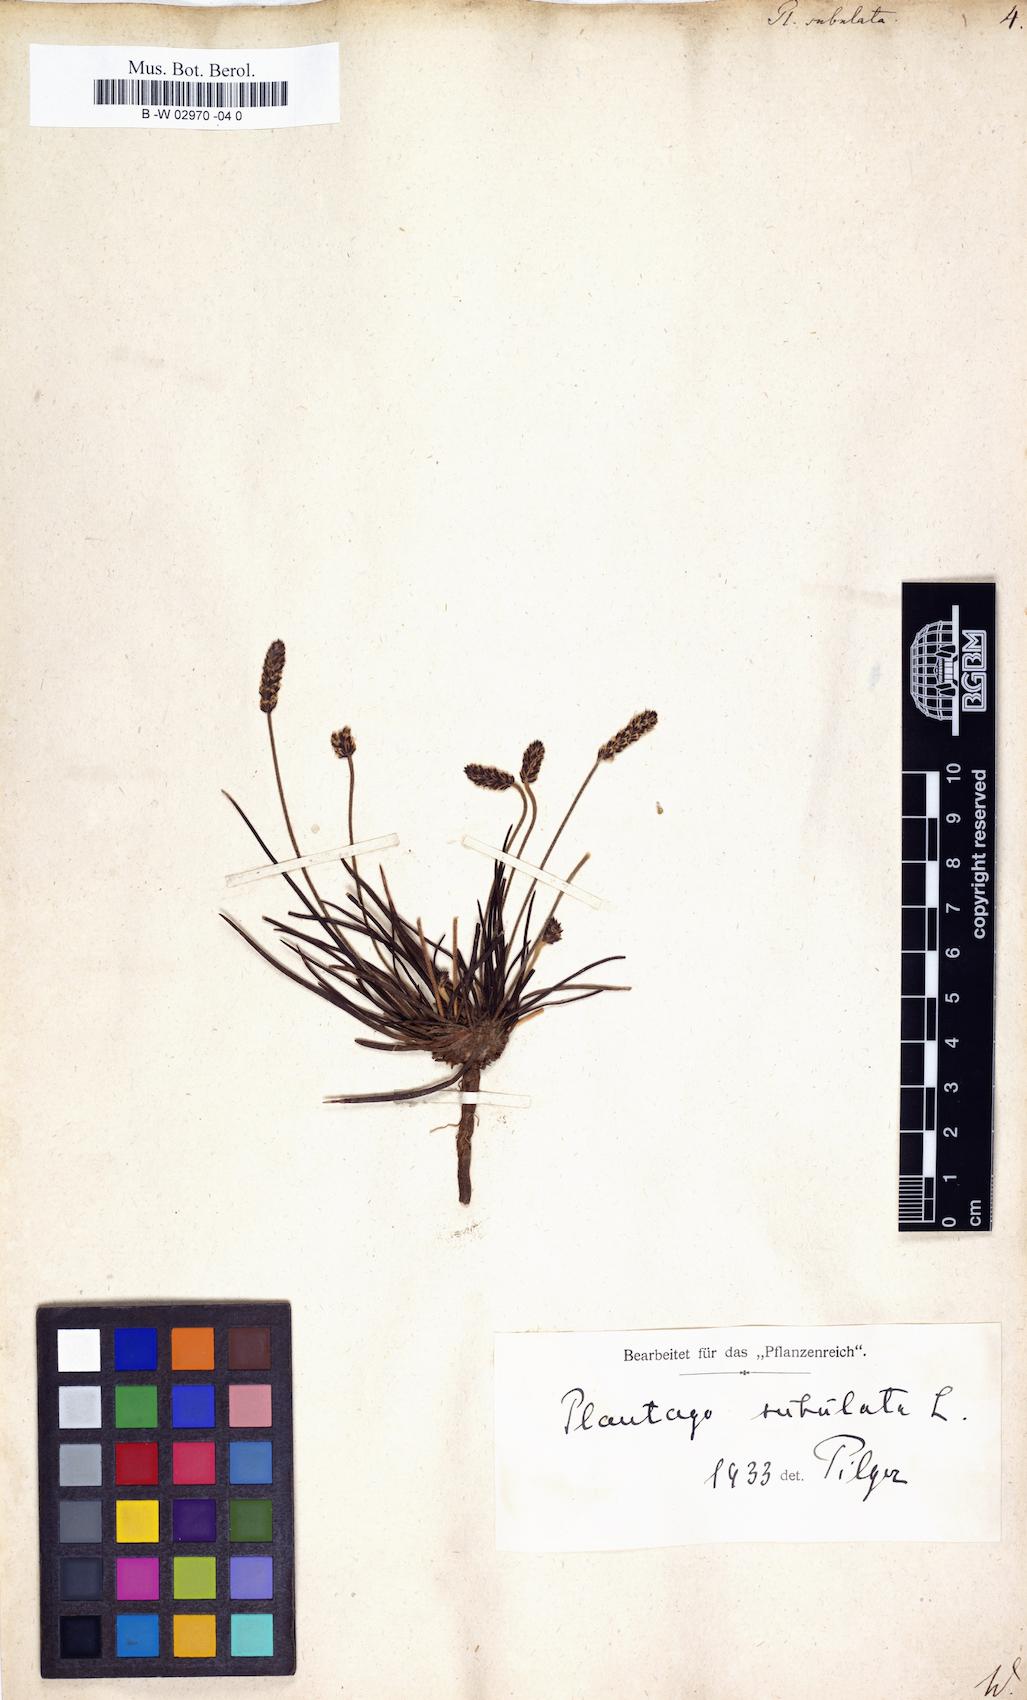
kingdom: Plantae
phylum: Tracheophyta
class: Magnoliopsida
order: Lamiales
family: Plantaginaceae
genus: Plantago
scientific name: Plantago subulata
